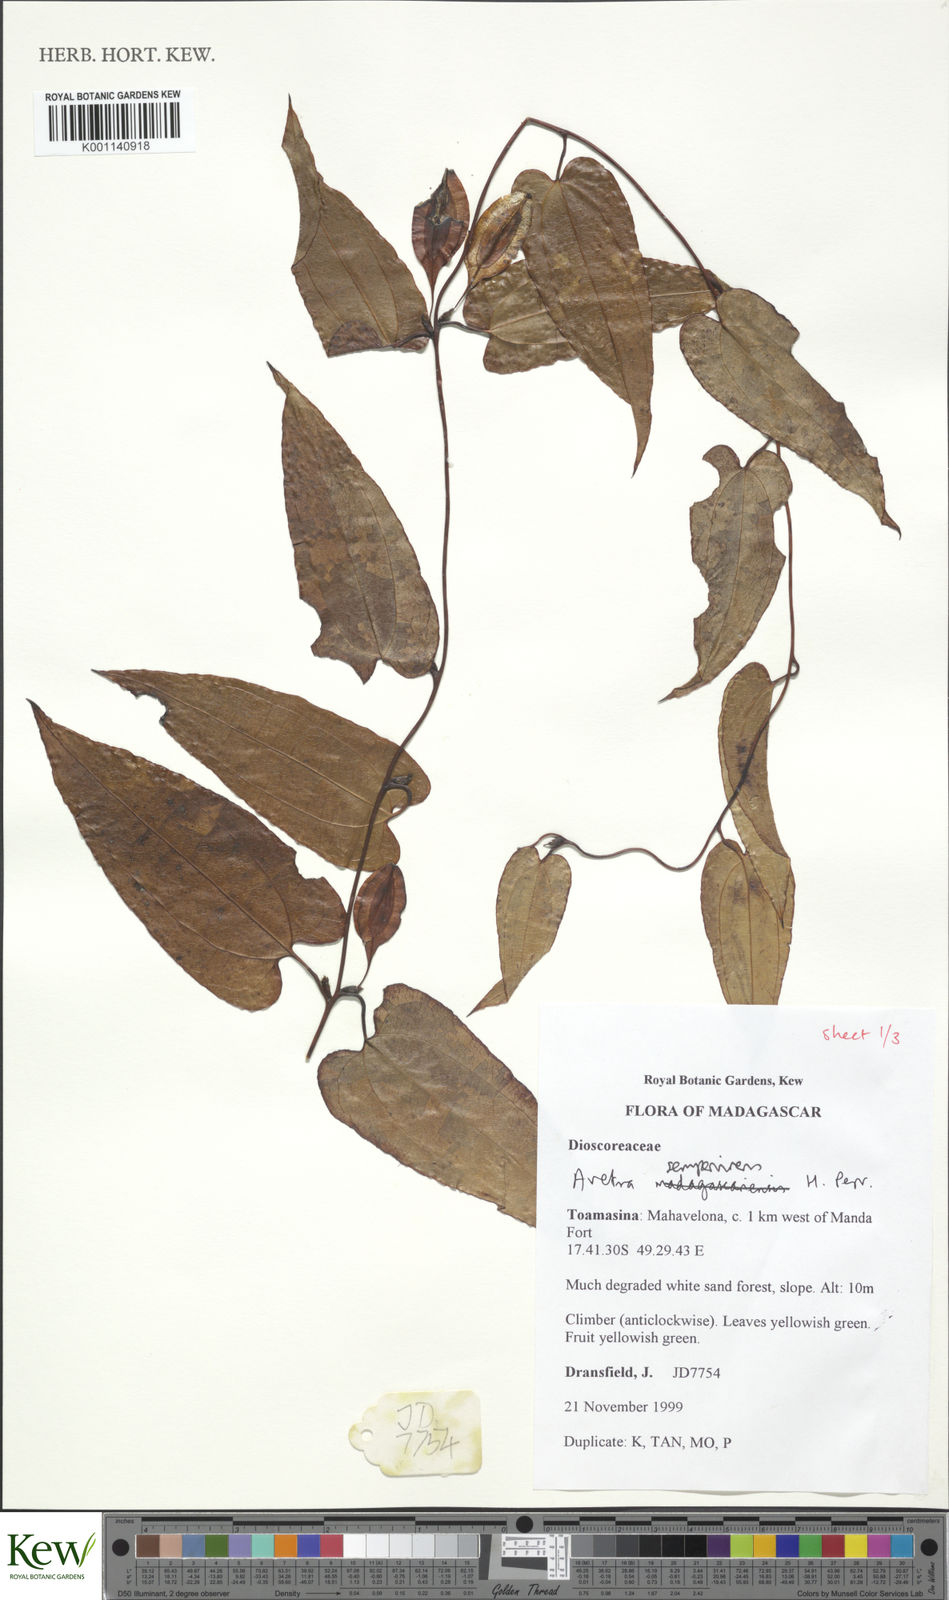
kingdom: Plantae
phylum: Tracheophyta
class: Liliopsida
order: Dioscoreales
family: Dioscoreaceae
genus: Trichopus
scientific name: Trichopus sempervirens
